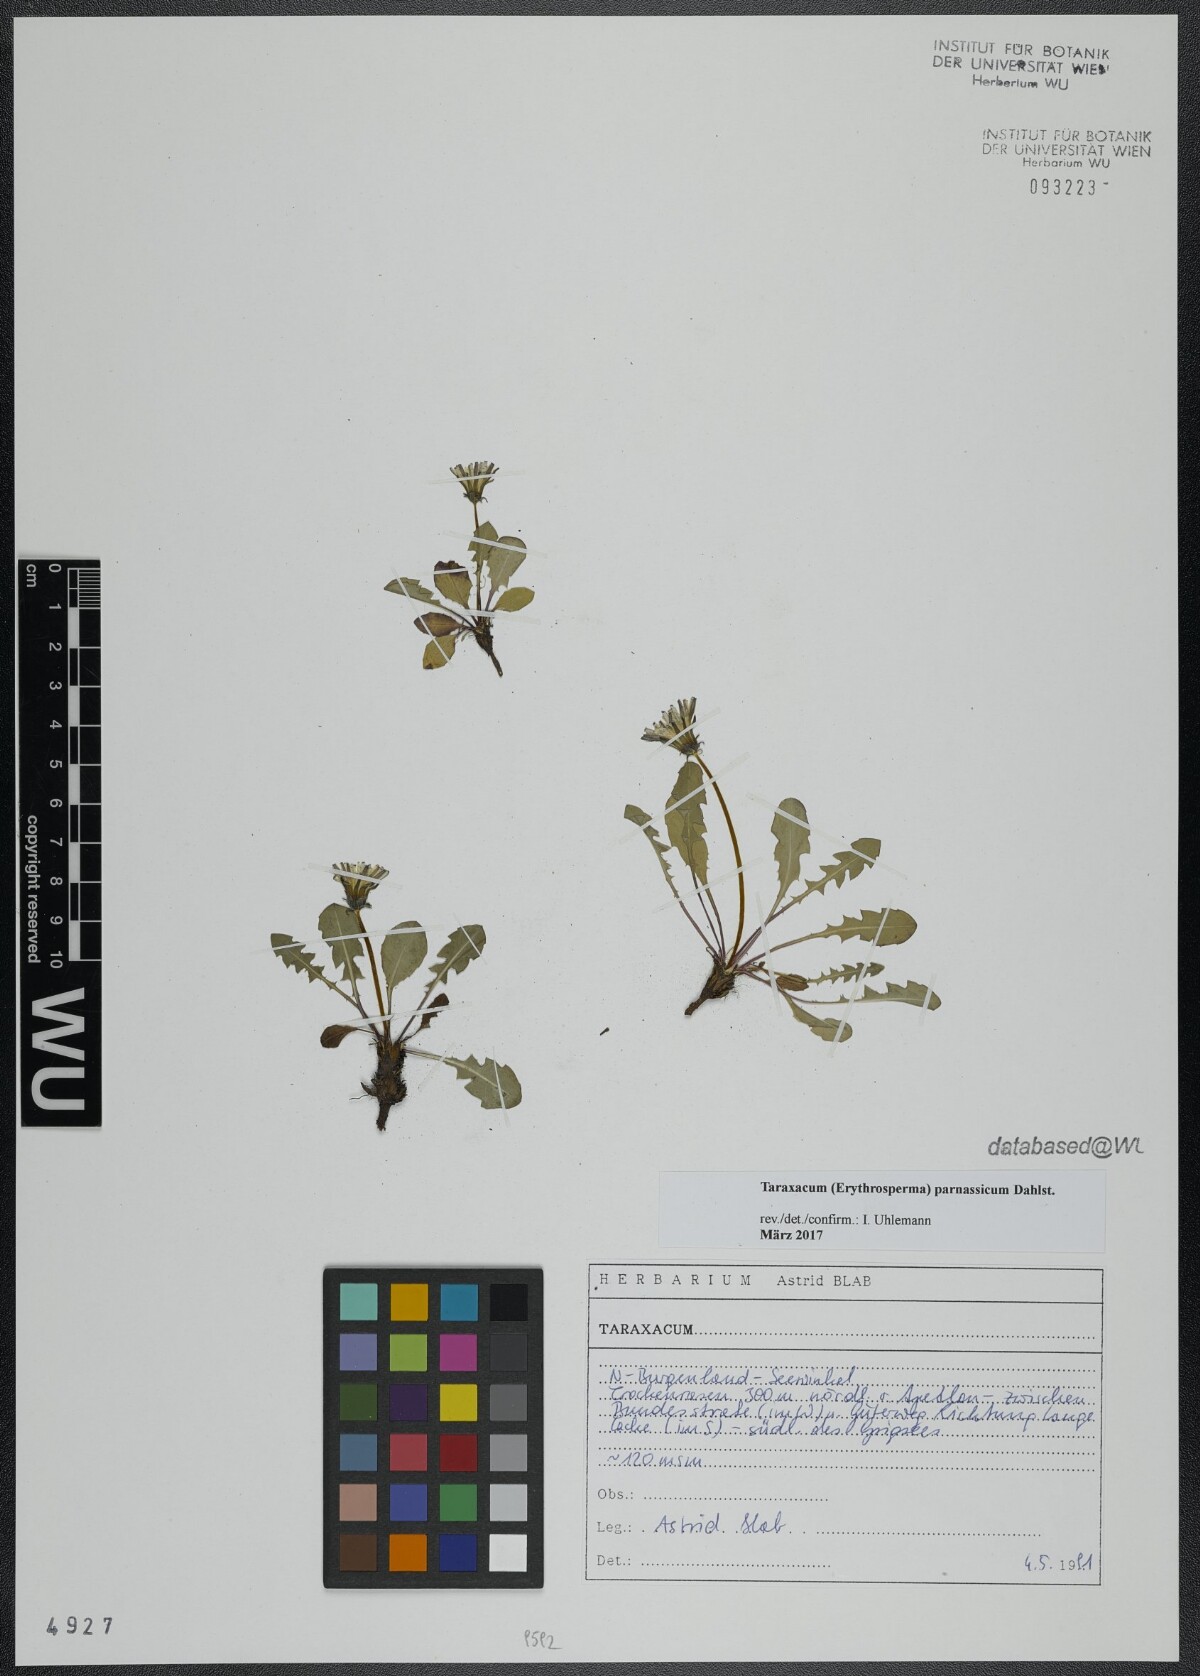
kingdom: Plantae
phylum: Tracheophyta
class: Magnoliopsida
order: Asterales
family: Asteraceae
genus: Taraxacum
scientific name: Taraxacum parnassicum
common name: Parnassus dandelion
